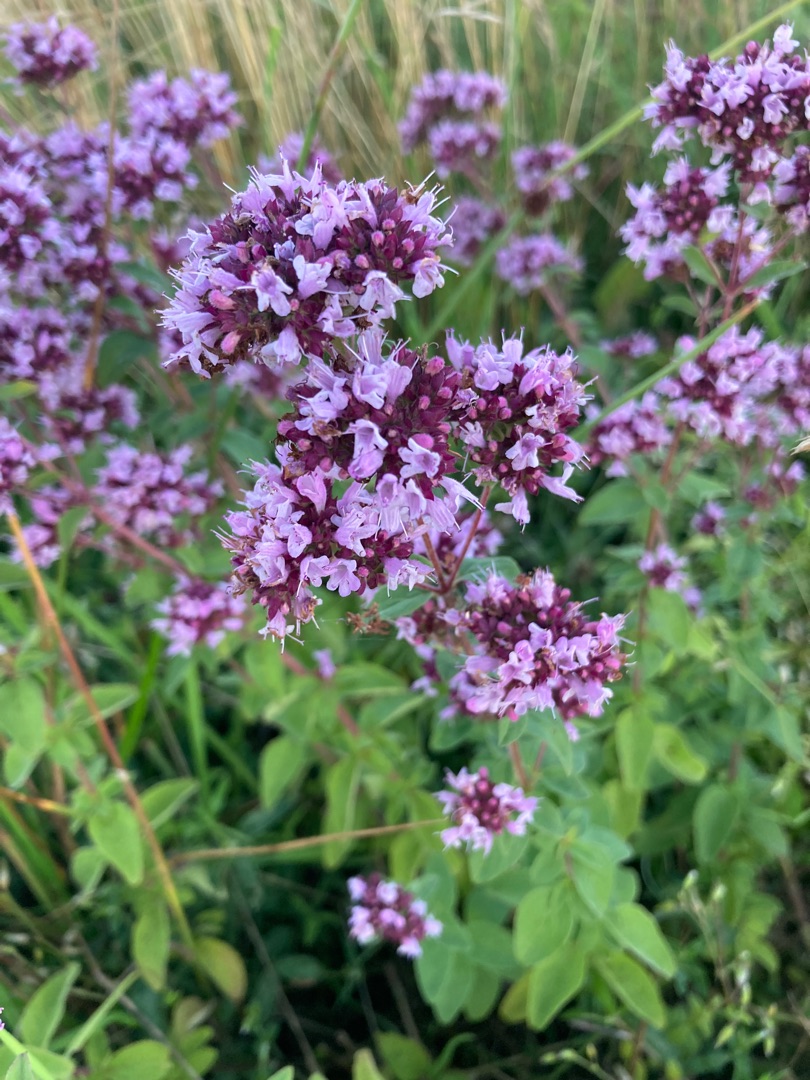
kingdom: Plantae
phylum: Tracheophyta
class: Magnoliopsida
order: Lamiales
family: Lamiaceae
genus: Origanum
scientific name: Origanum vulgare
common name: Merian
